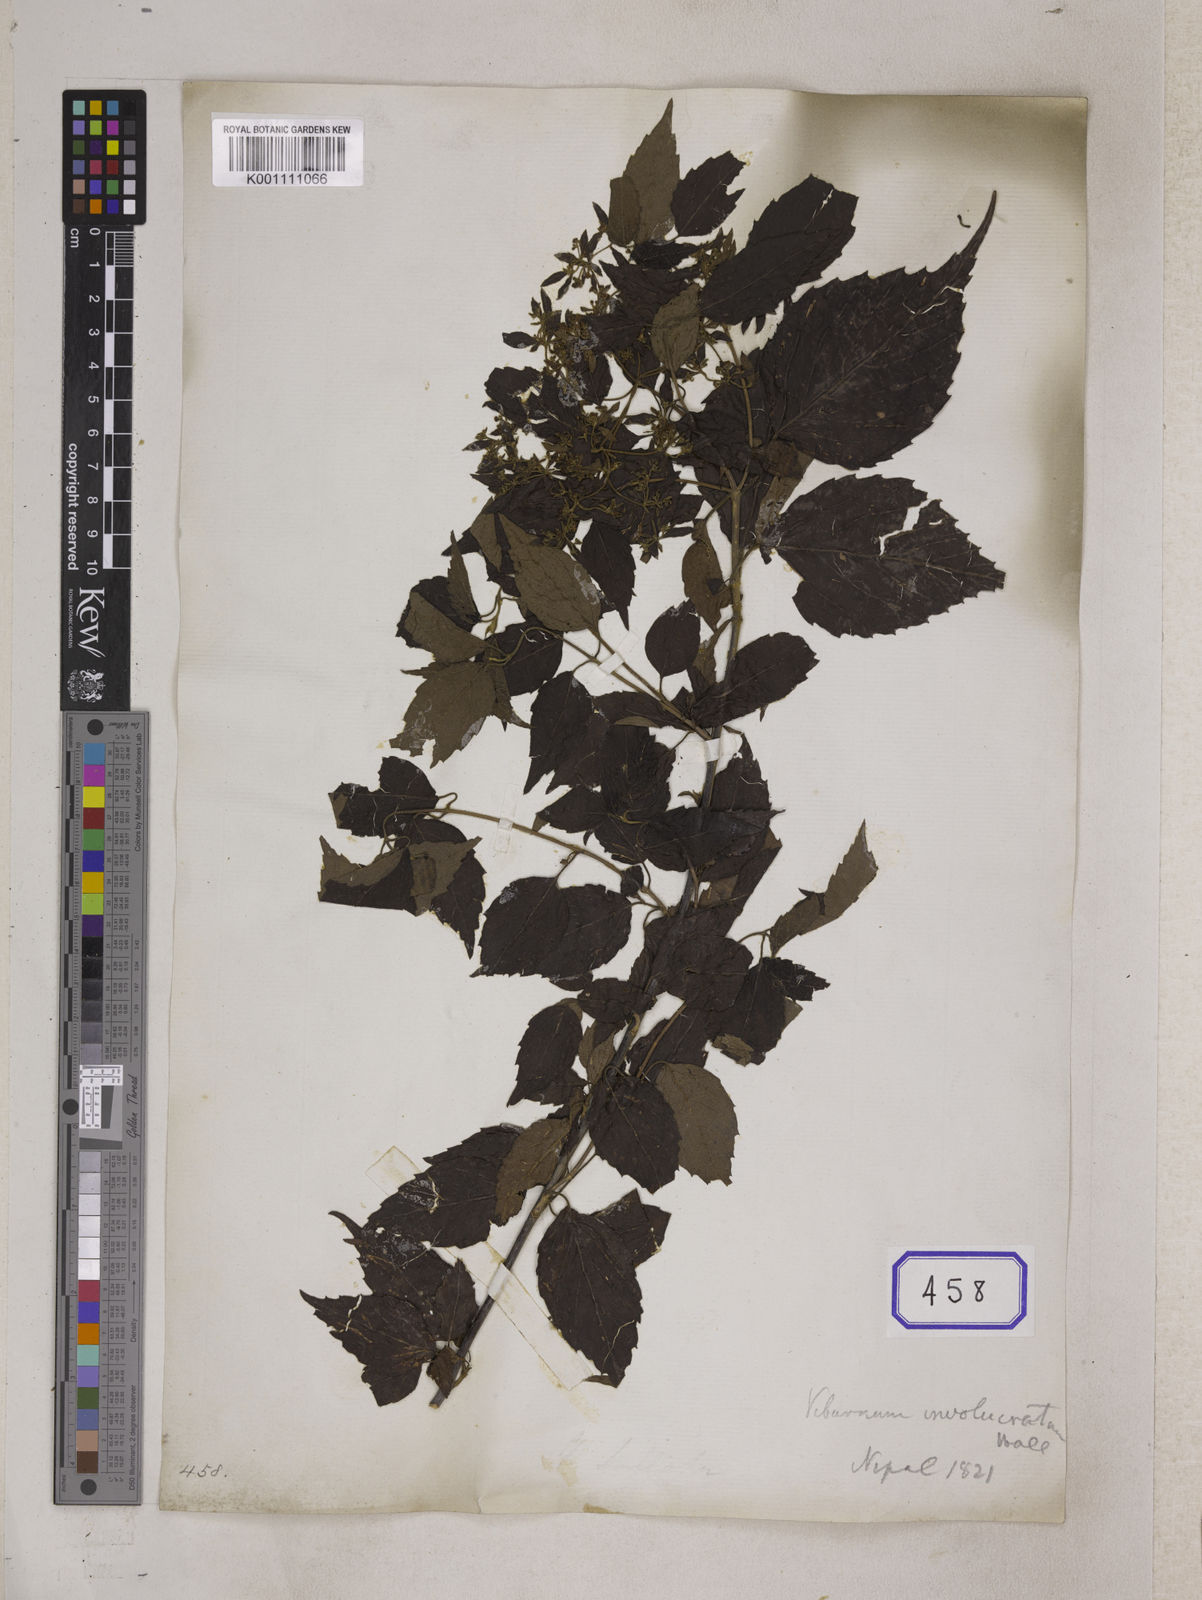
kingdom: Plantae
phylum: Tracheophyta
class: Magnoliopsida
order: Dipsacales
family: Viburnaceae
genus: Viburnum
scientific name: Viburnum
